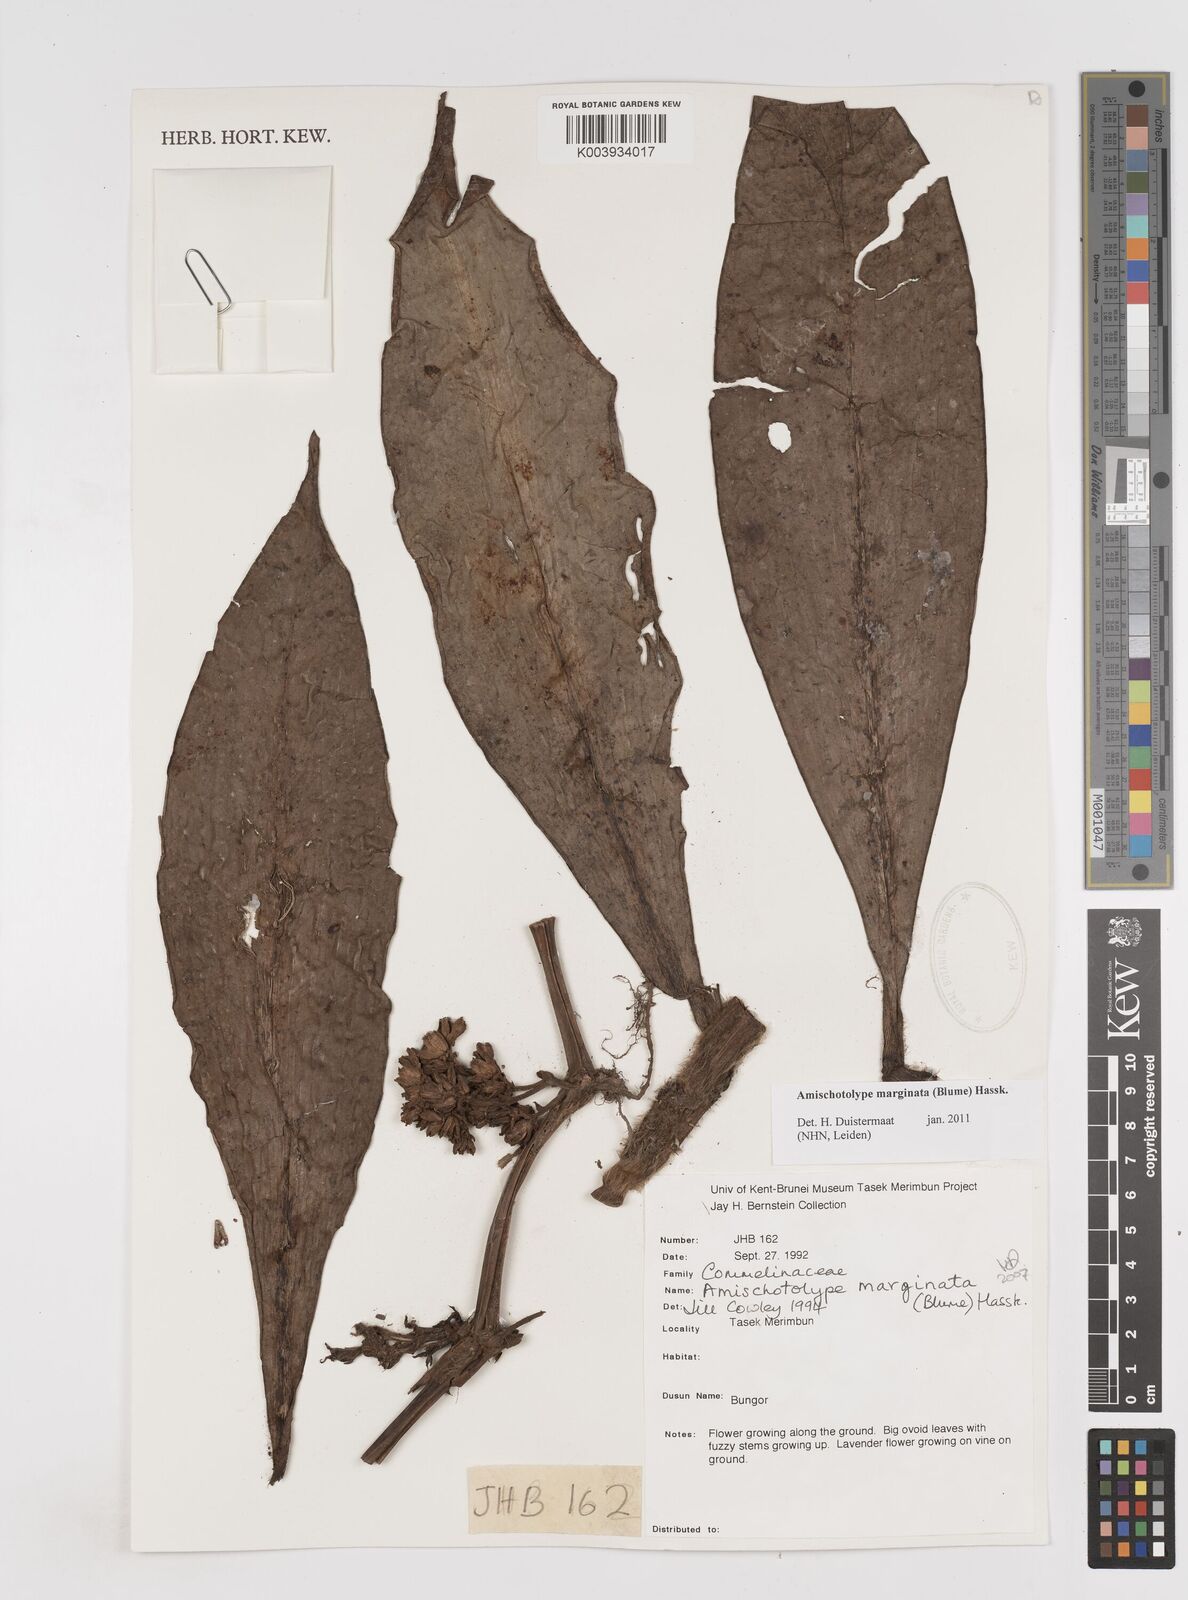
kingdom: Plantae
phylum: Tracheophyta
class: Liliopsida
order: Commelinales
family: Commelinaceae
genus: Amischotolype
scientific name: Amischotolype marginata
